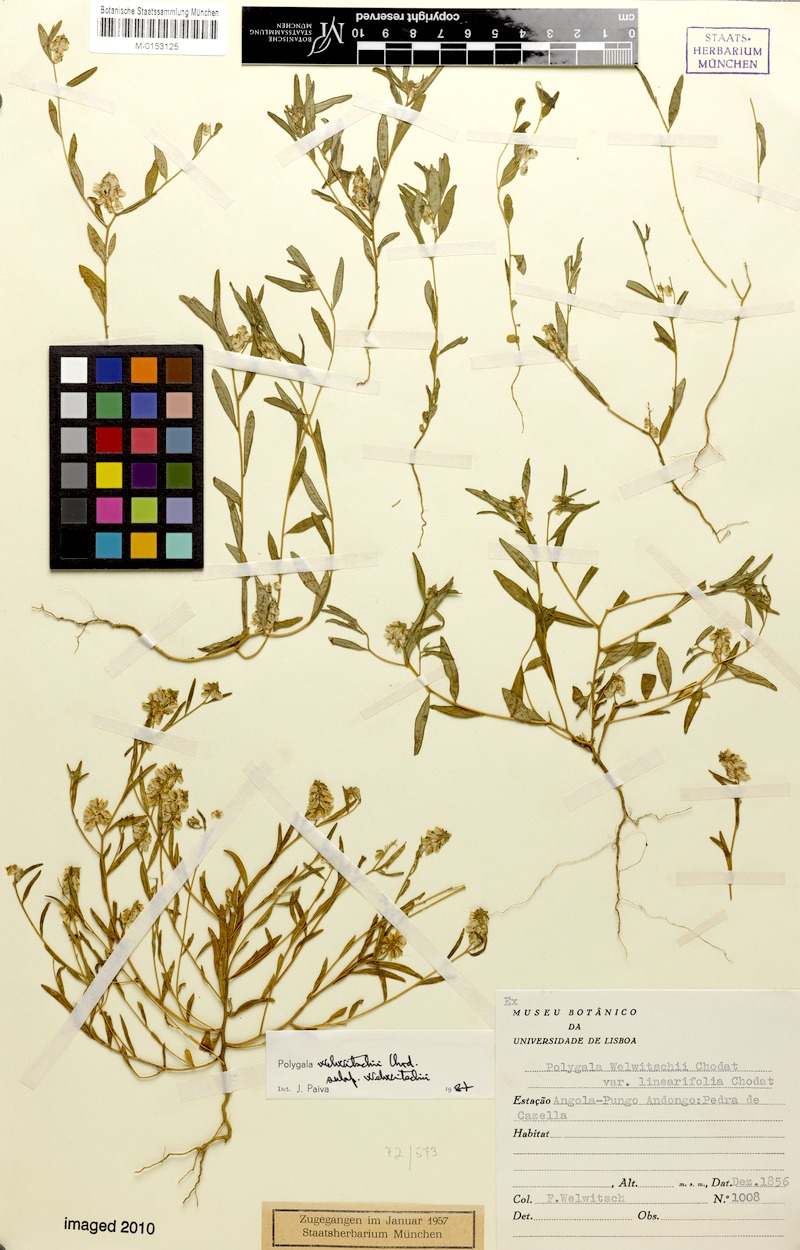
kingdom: Plantae
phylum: Tracheophyta
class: Magnoliopsida
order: Fabales
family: Polygalaceae
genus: Polygala
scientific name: Polygala welwitschii
